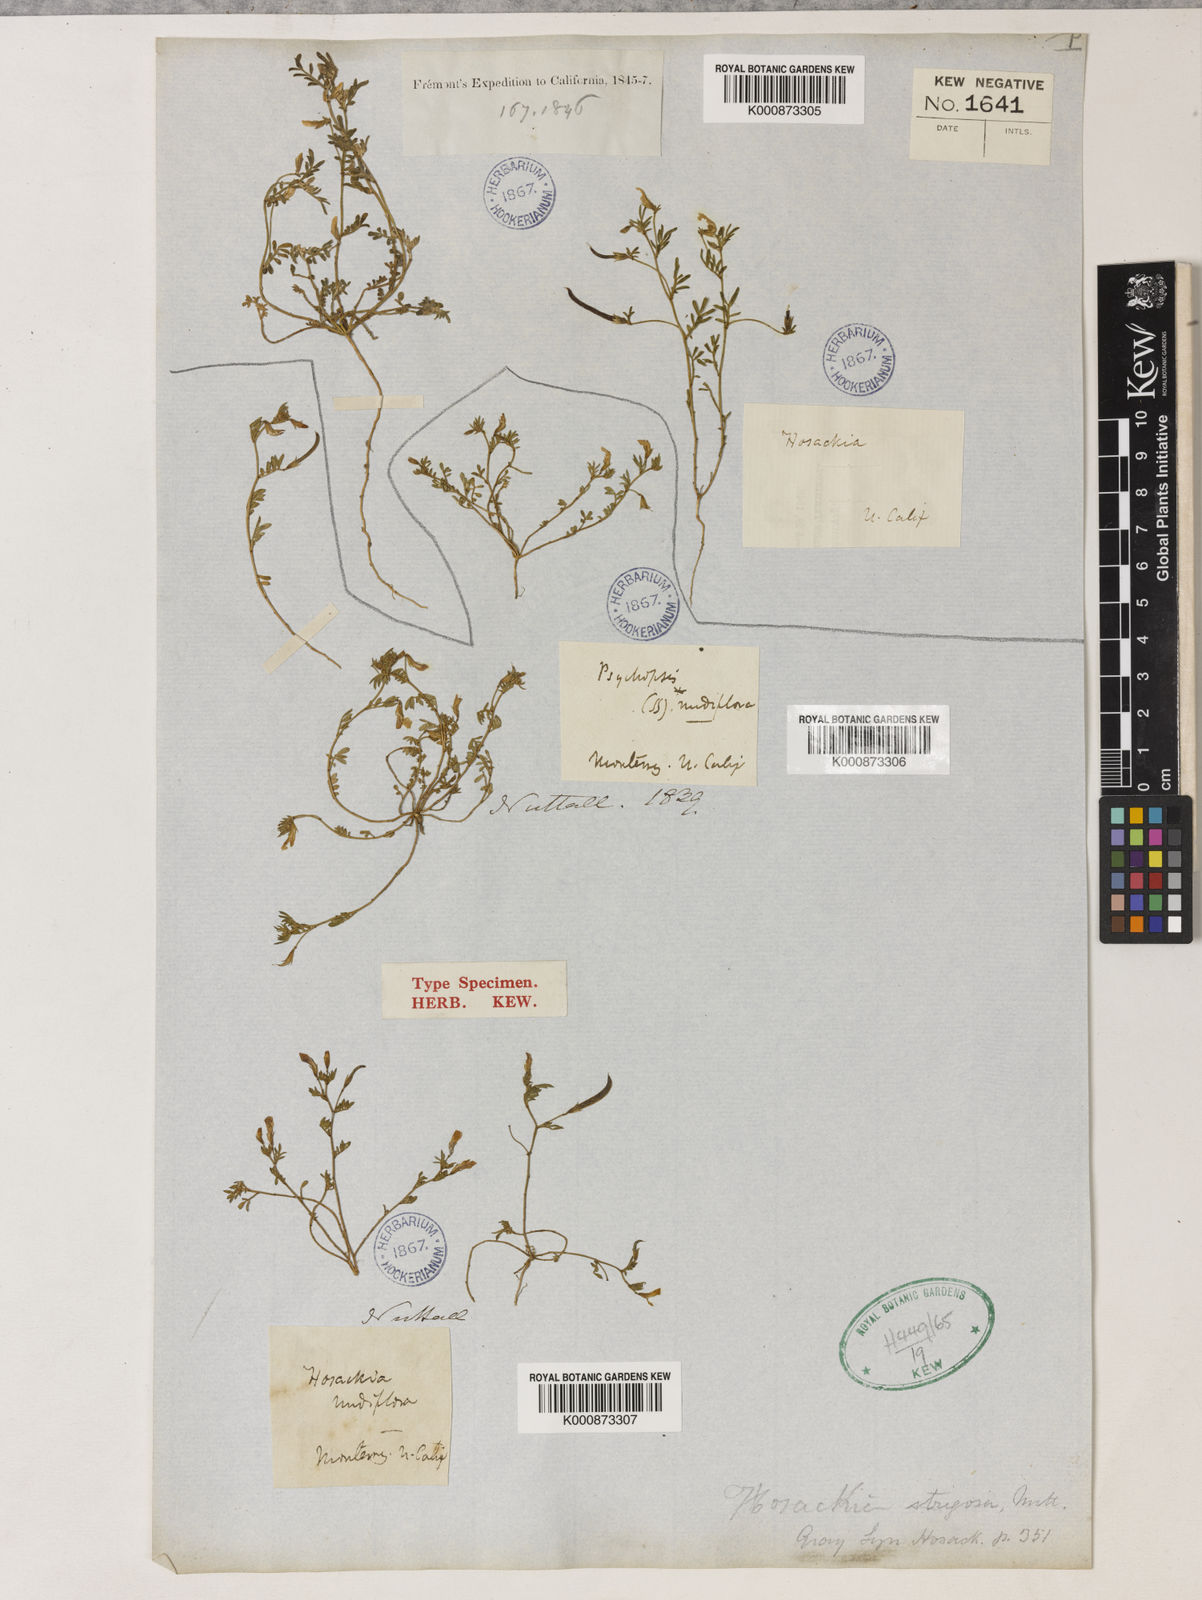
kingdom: Plantae
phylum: Tracheophyta
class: Magnoliopsida
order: Fabales
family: Fabaceae
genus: Acmispon
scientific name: Acmispon strigosus
